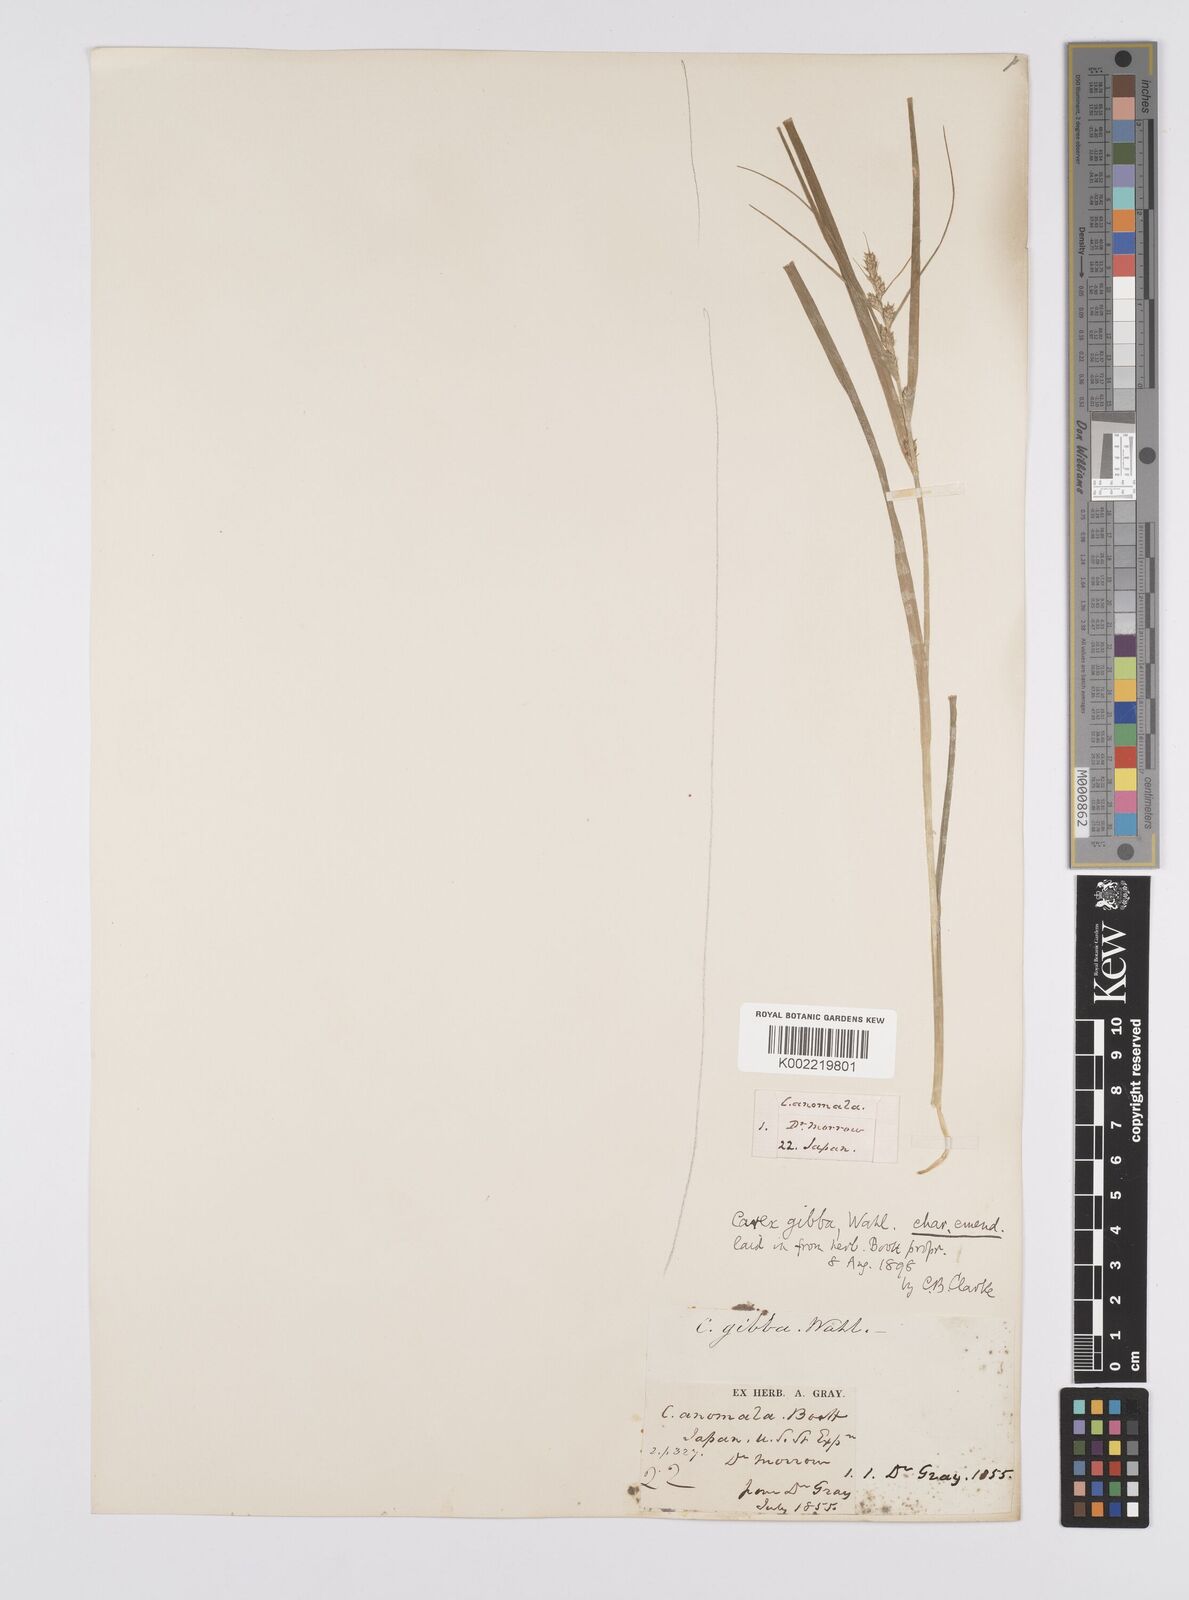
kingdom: Plantae
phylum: Tracheophyta
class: Liliopsida
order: Poales
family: Cyperaceae
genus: Carex
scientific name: Carex gibba
